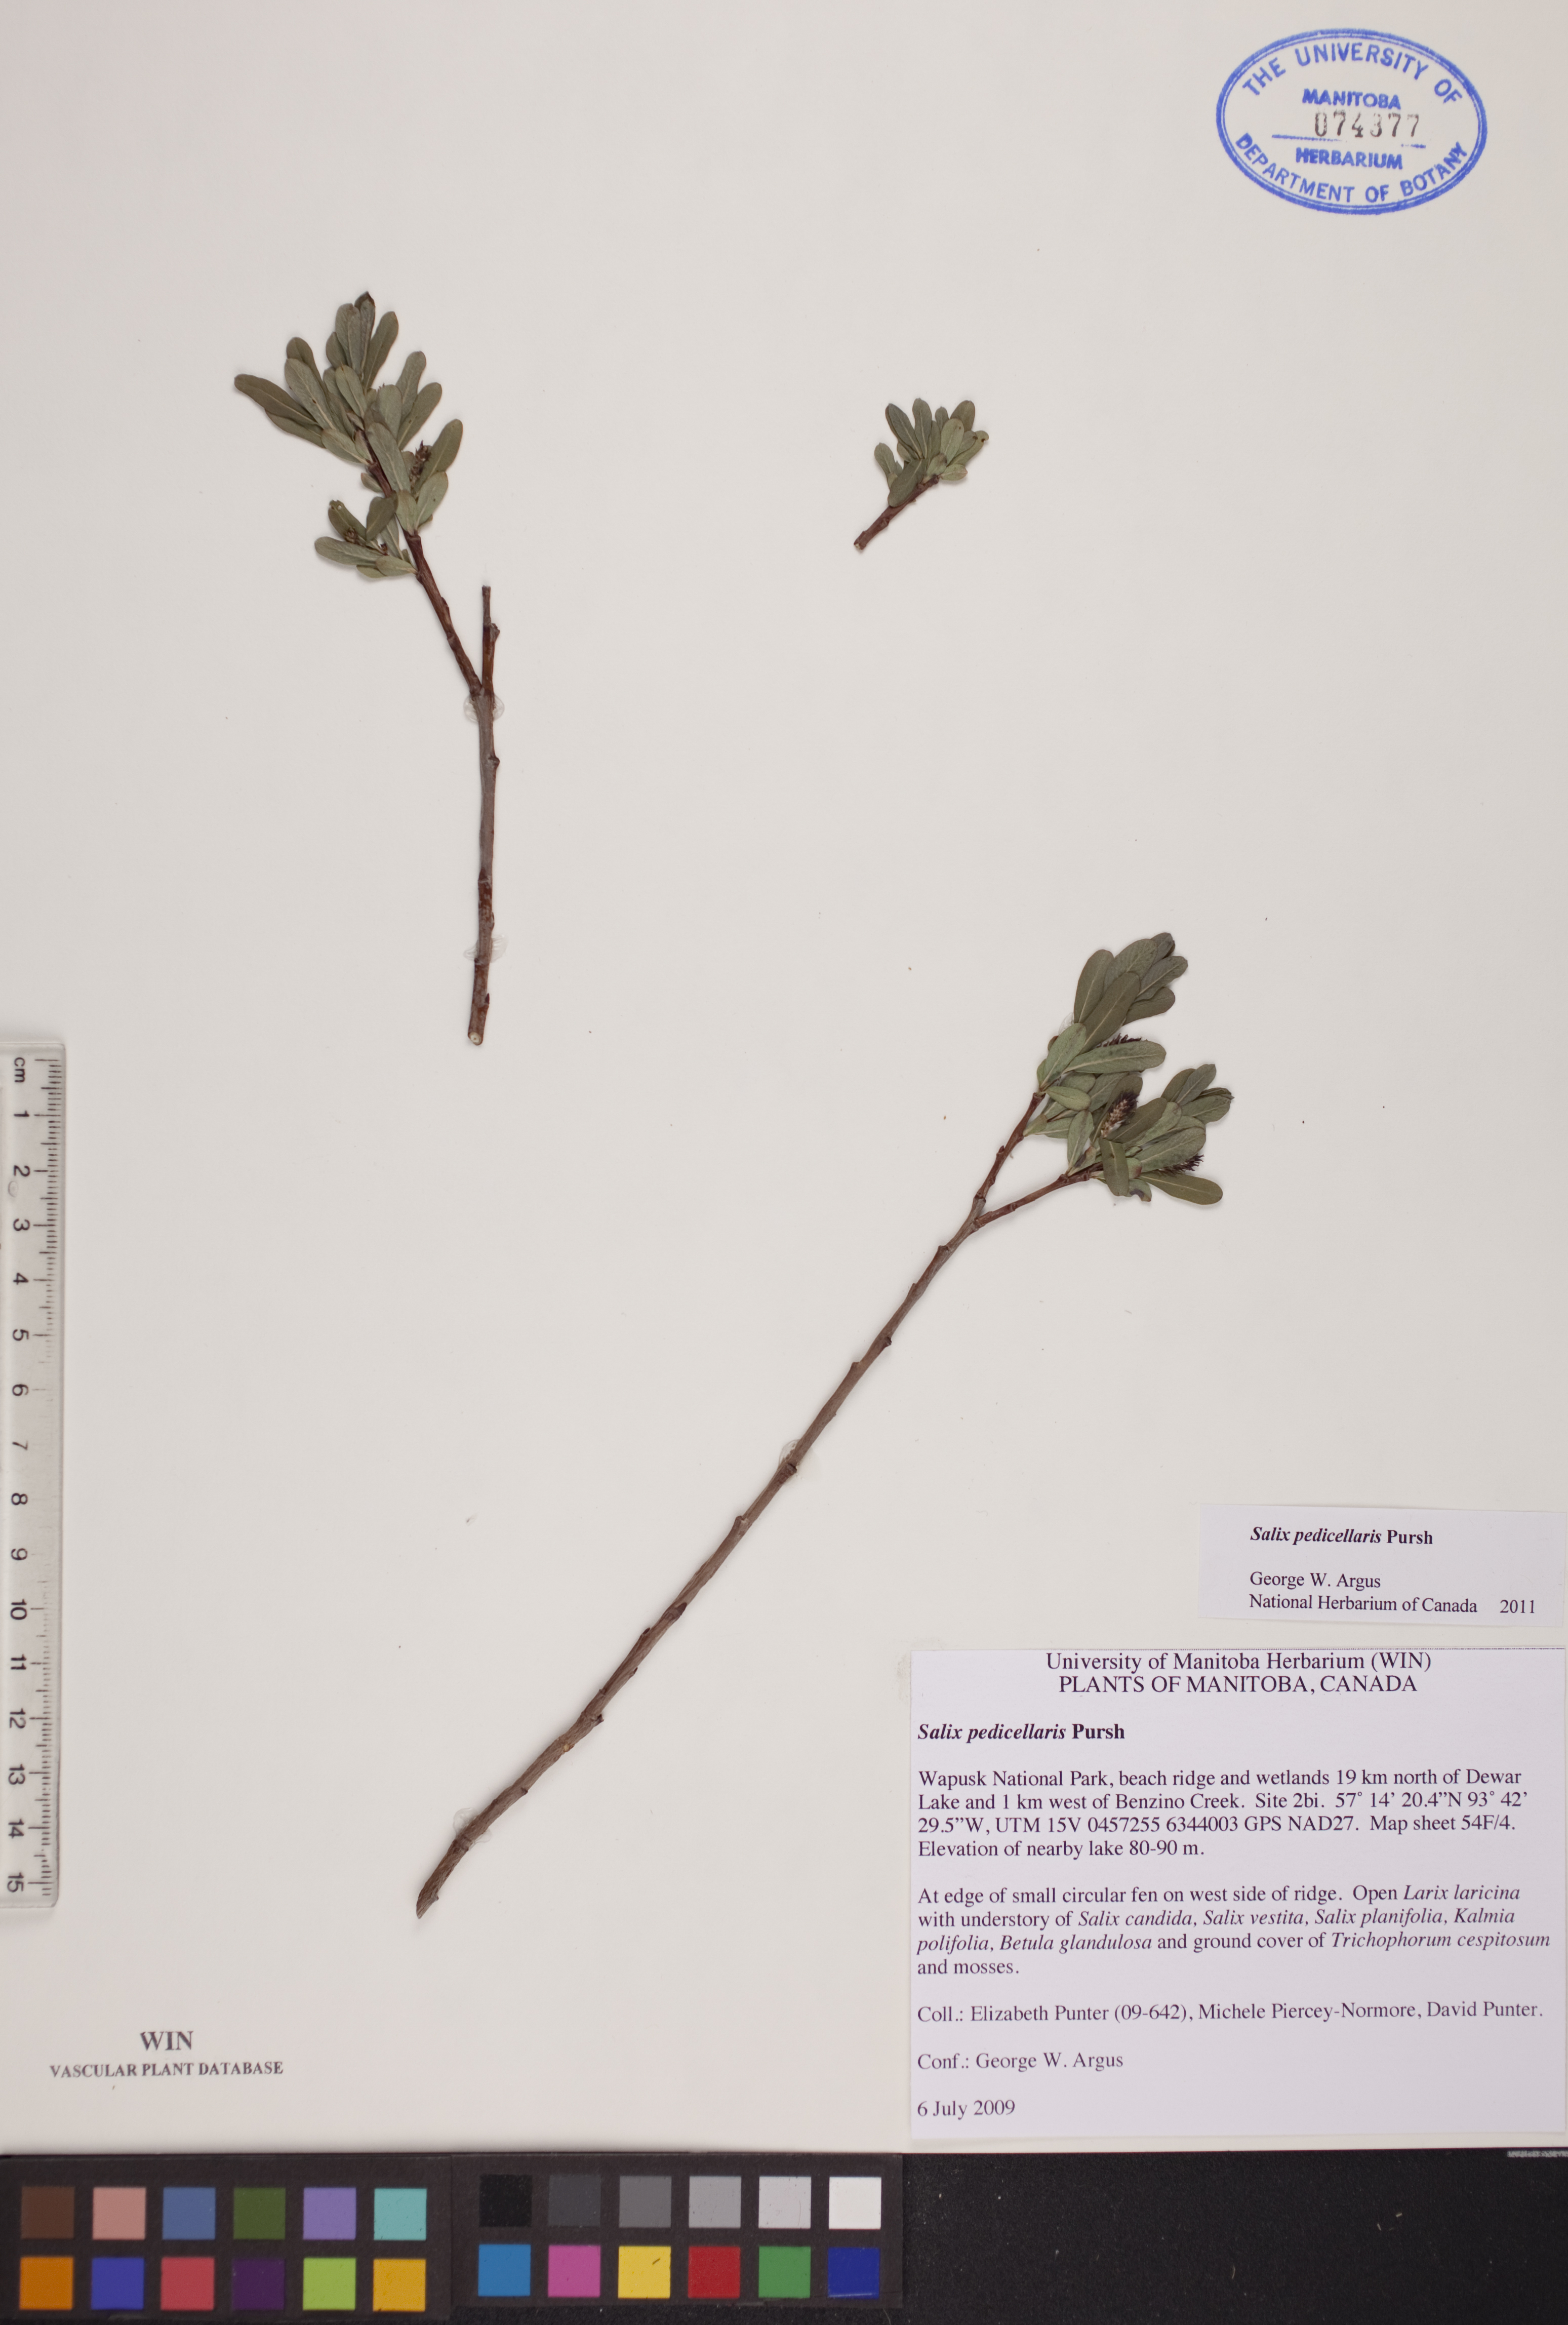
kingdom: Plantae
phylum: Tracheophyta
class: Magnoliopsida
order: Malpighiales
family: Salicaceae
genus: Salix
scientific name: Salix pedicellaris
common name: Bog willow
